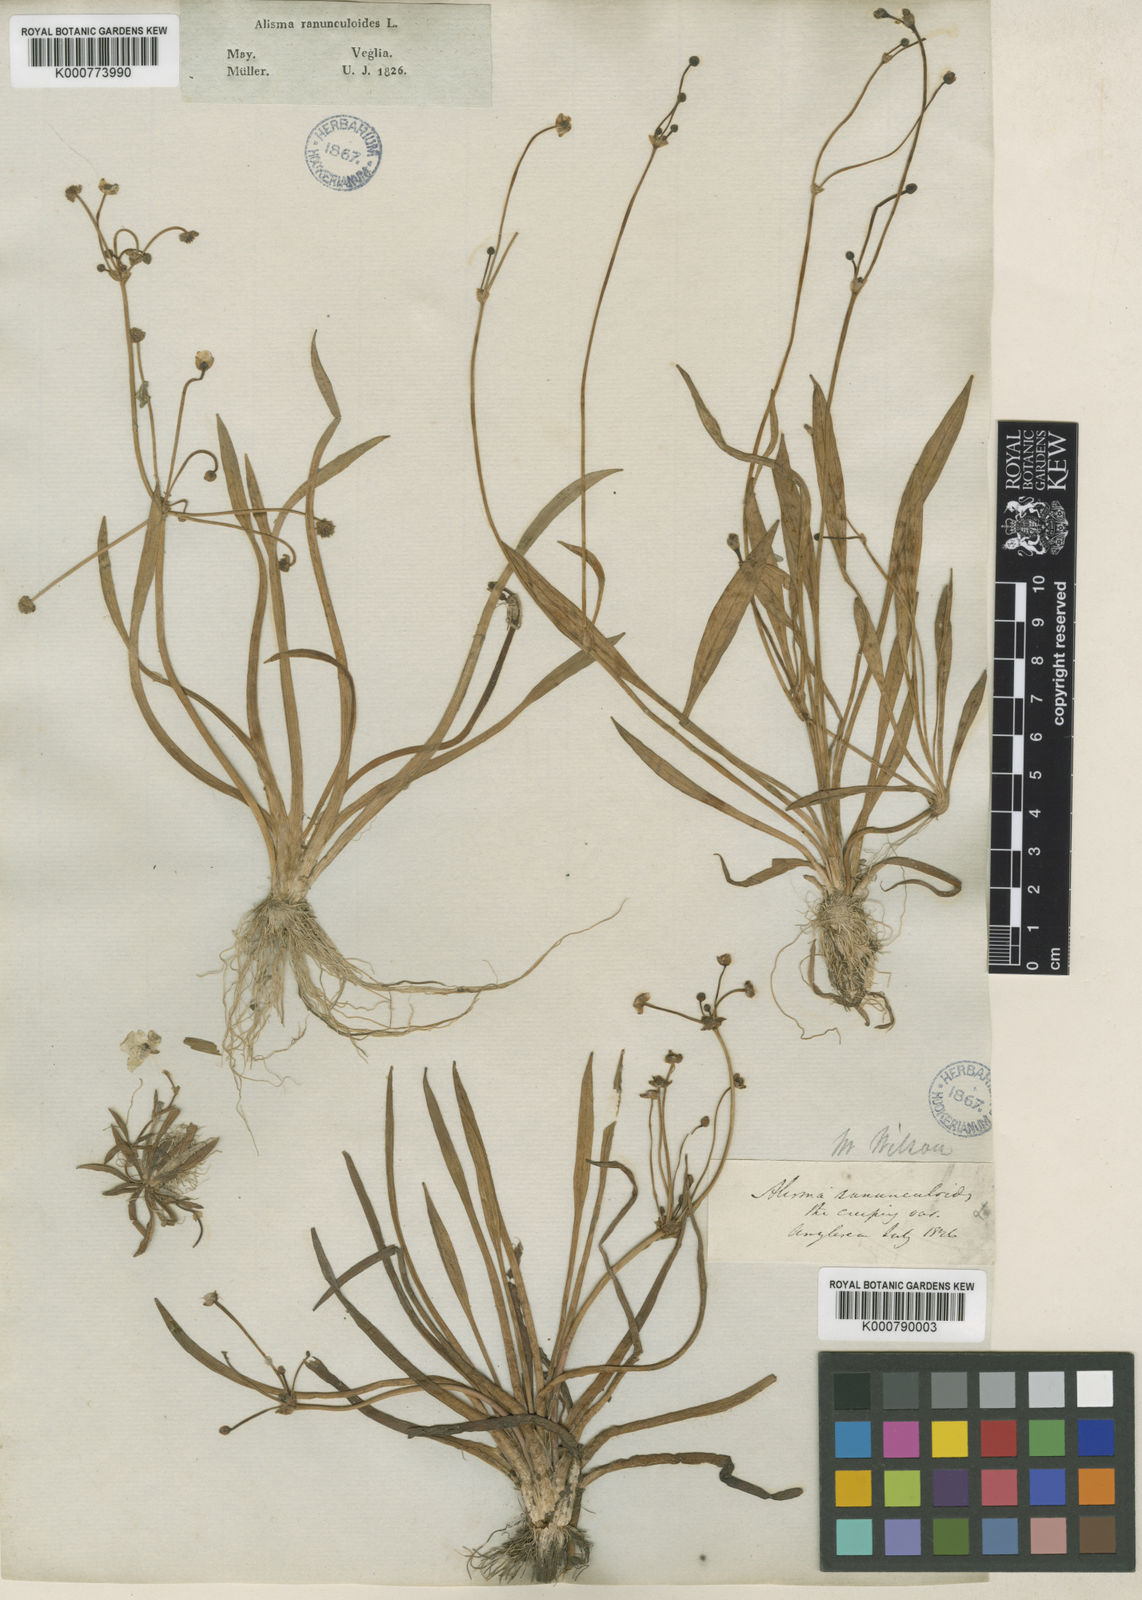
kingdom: Plantae
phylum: Tracheophyta
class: Liliopsida
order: Alismatales
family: Alismataceae
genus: Baldellia
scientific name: Baldellia ranunculoides
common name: Lesser water-plantain
